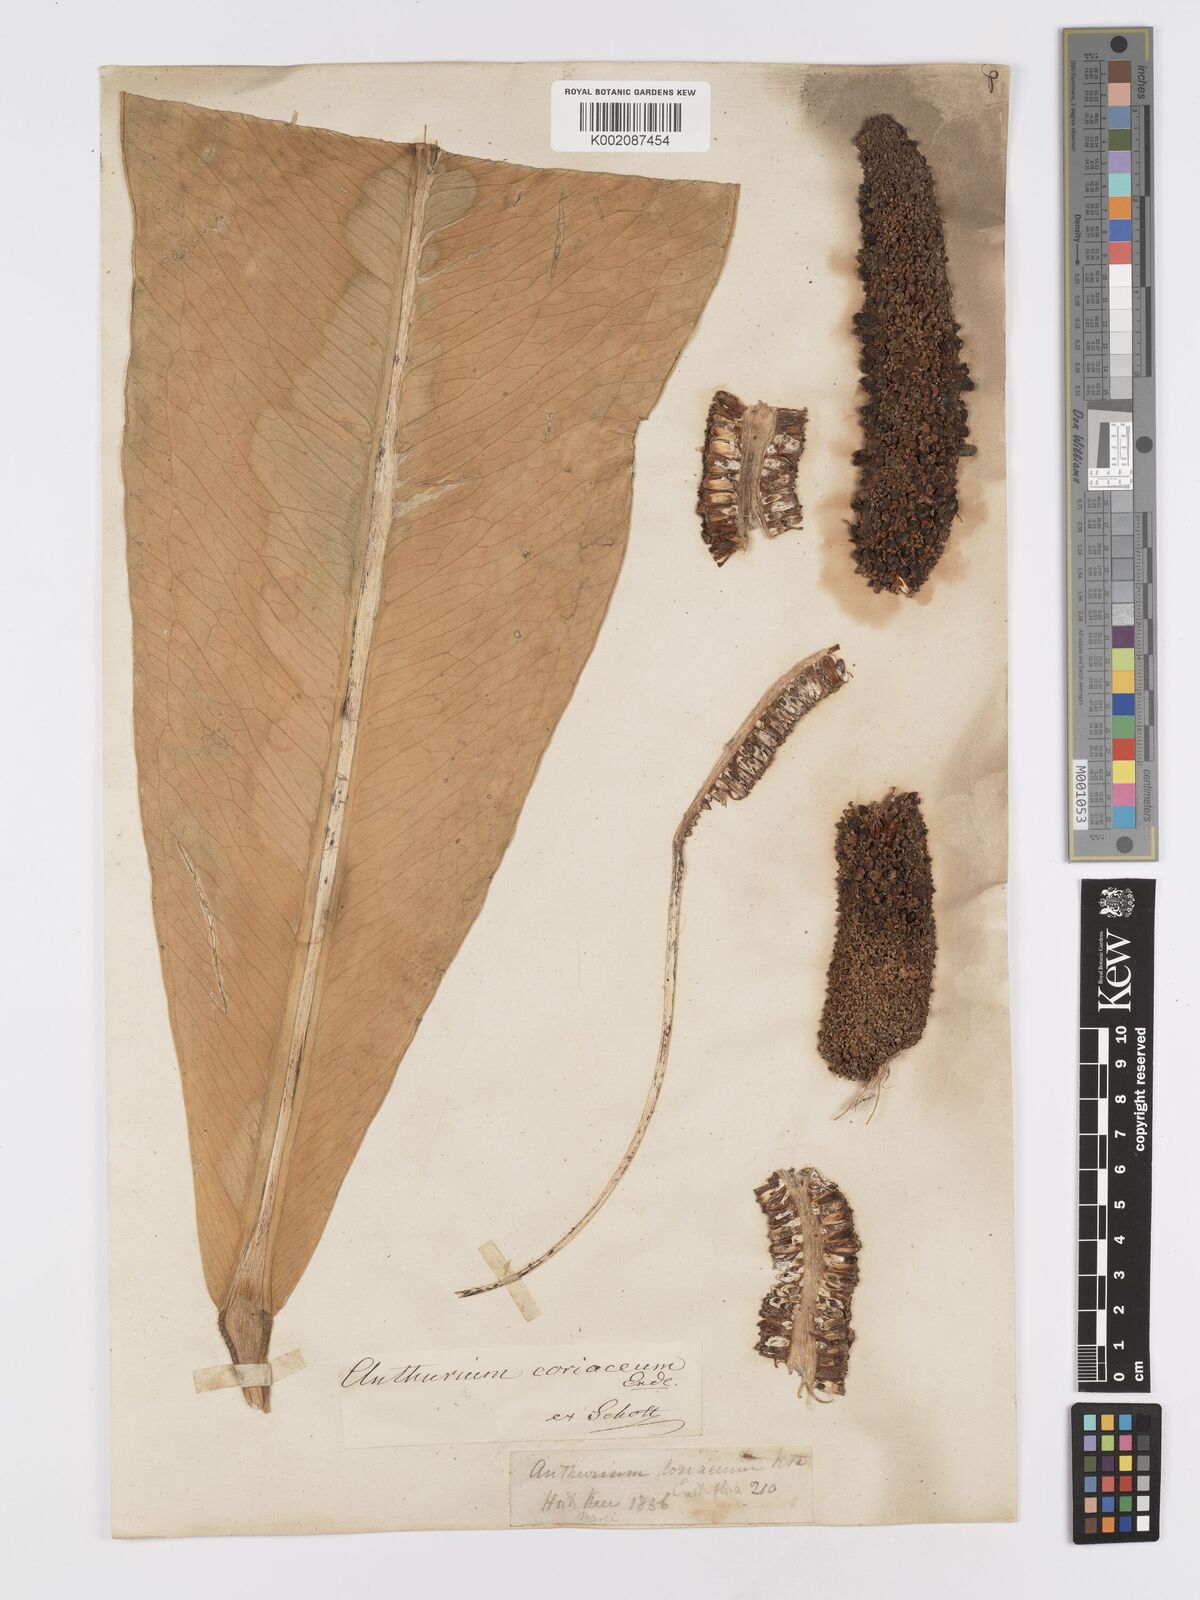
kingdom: Plantae
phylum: Tracheophyta
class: Liliopsida
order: Alismatales
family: Araceae
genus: Anthurium
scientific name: Anthurium
